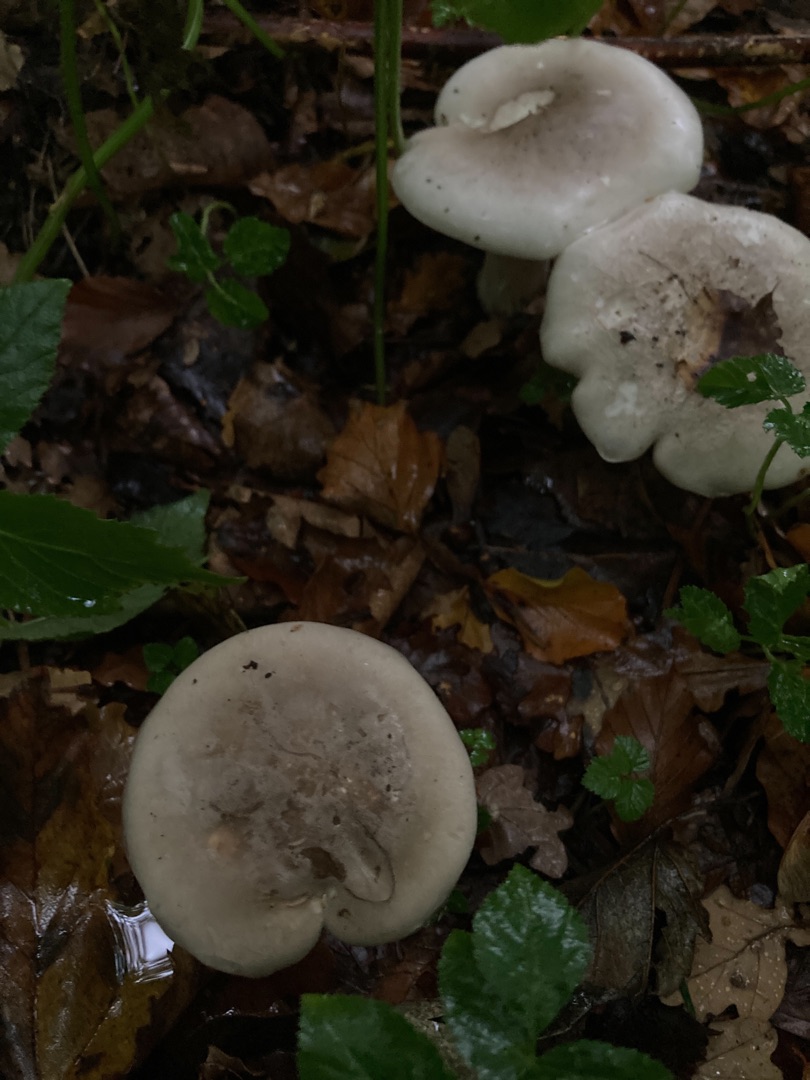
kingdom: Fungi
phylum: Basidiomycota
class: Agaricomycetes
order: Agaricales
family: Tricholomataceae
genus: Clitocybe
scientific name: Clitocybe nebularis
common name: Tåge-tragthat
